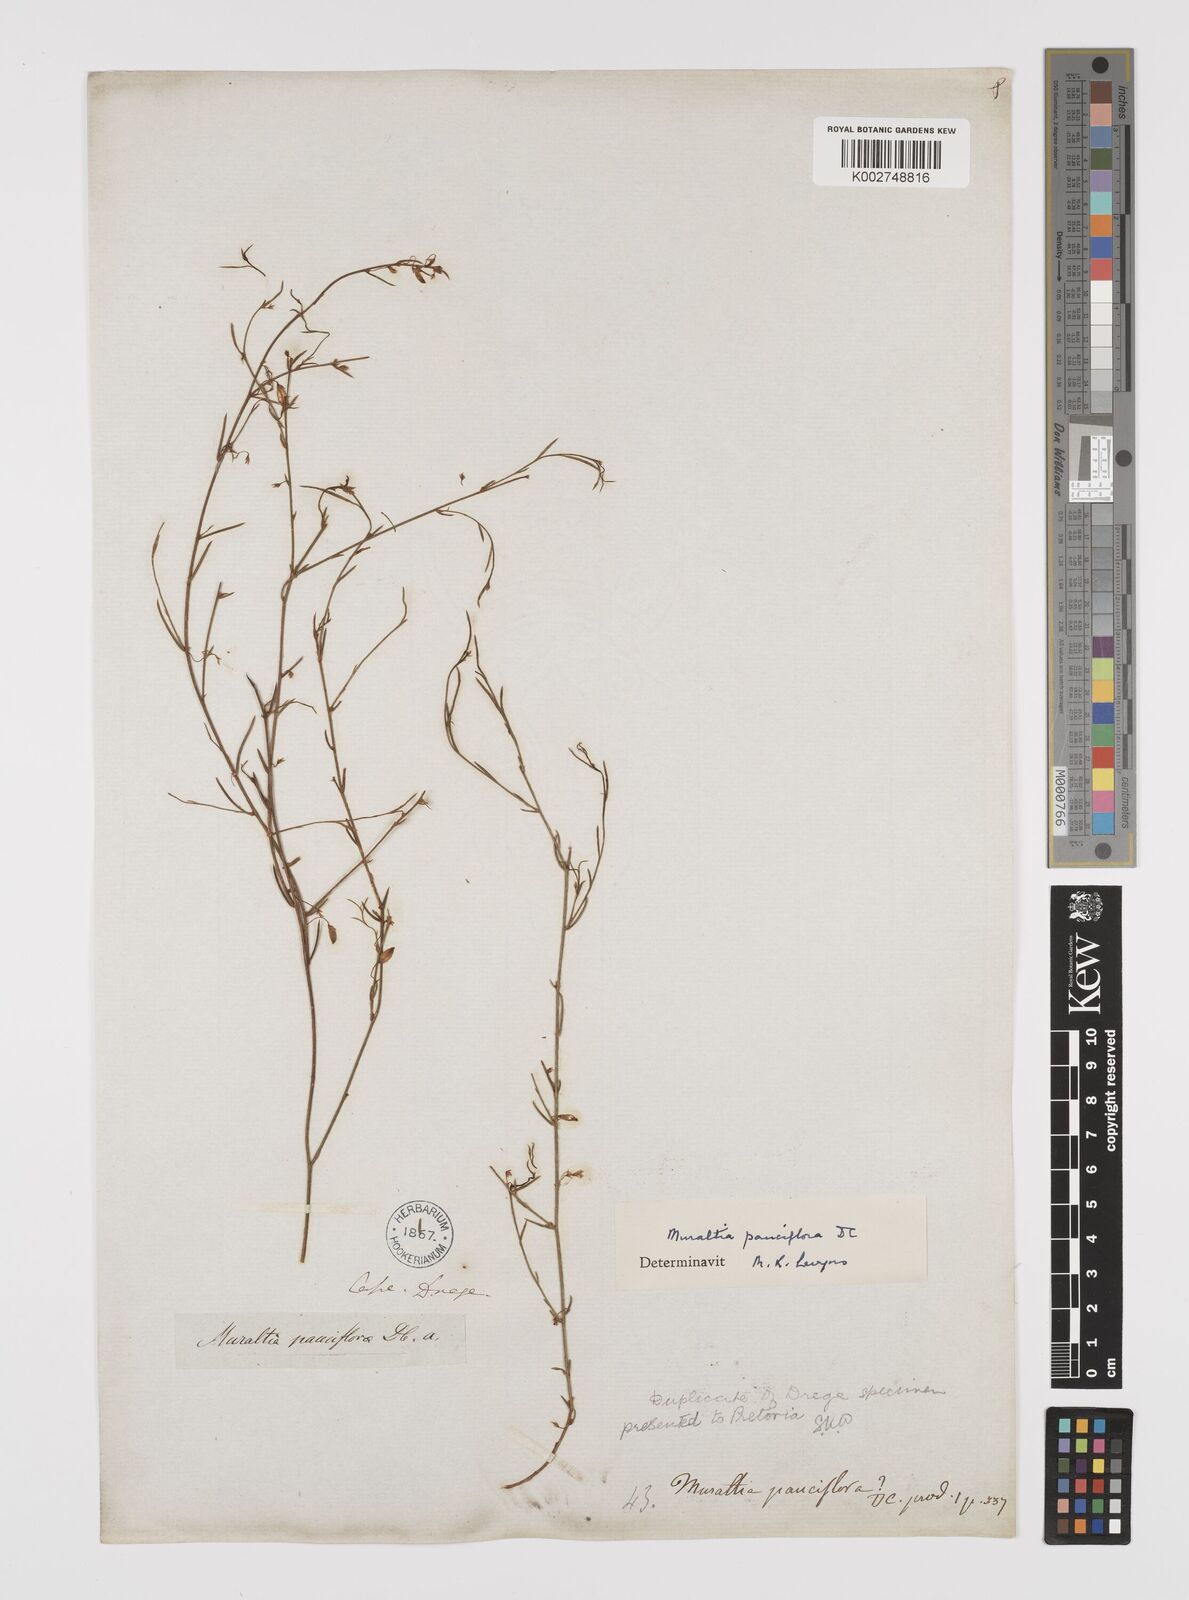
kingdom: Plantae
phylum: Tracheophyta
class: Magnoliopsida
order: Fabales
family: Polygalaceae
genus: Muraltia
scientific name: Muraltia pauciflora
